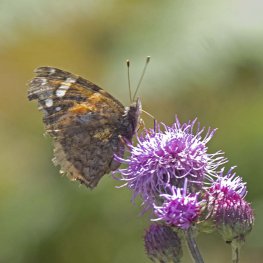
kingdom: Animalia
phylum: Arthropoda
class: Insecta
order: Lepidoptera
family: Nymphalidae
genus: Vanessa
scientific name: Vanessa atalanta
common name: Red Admiral
